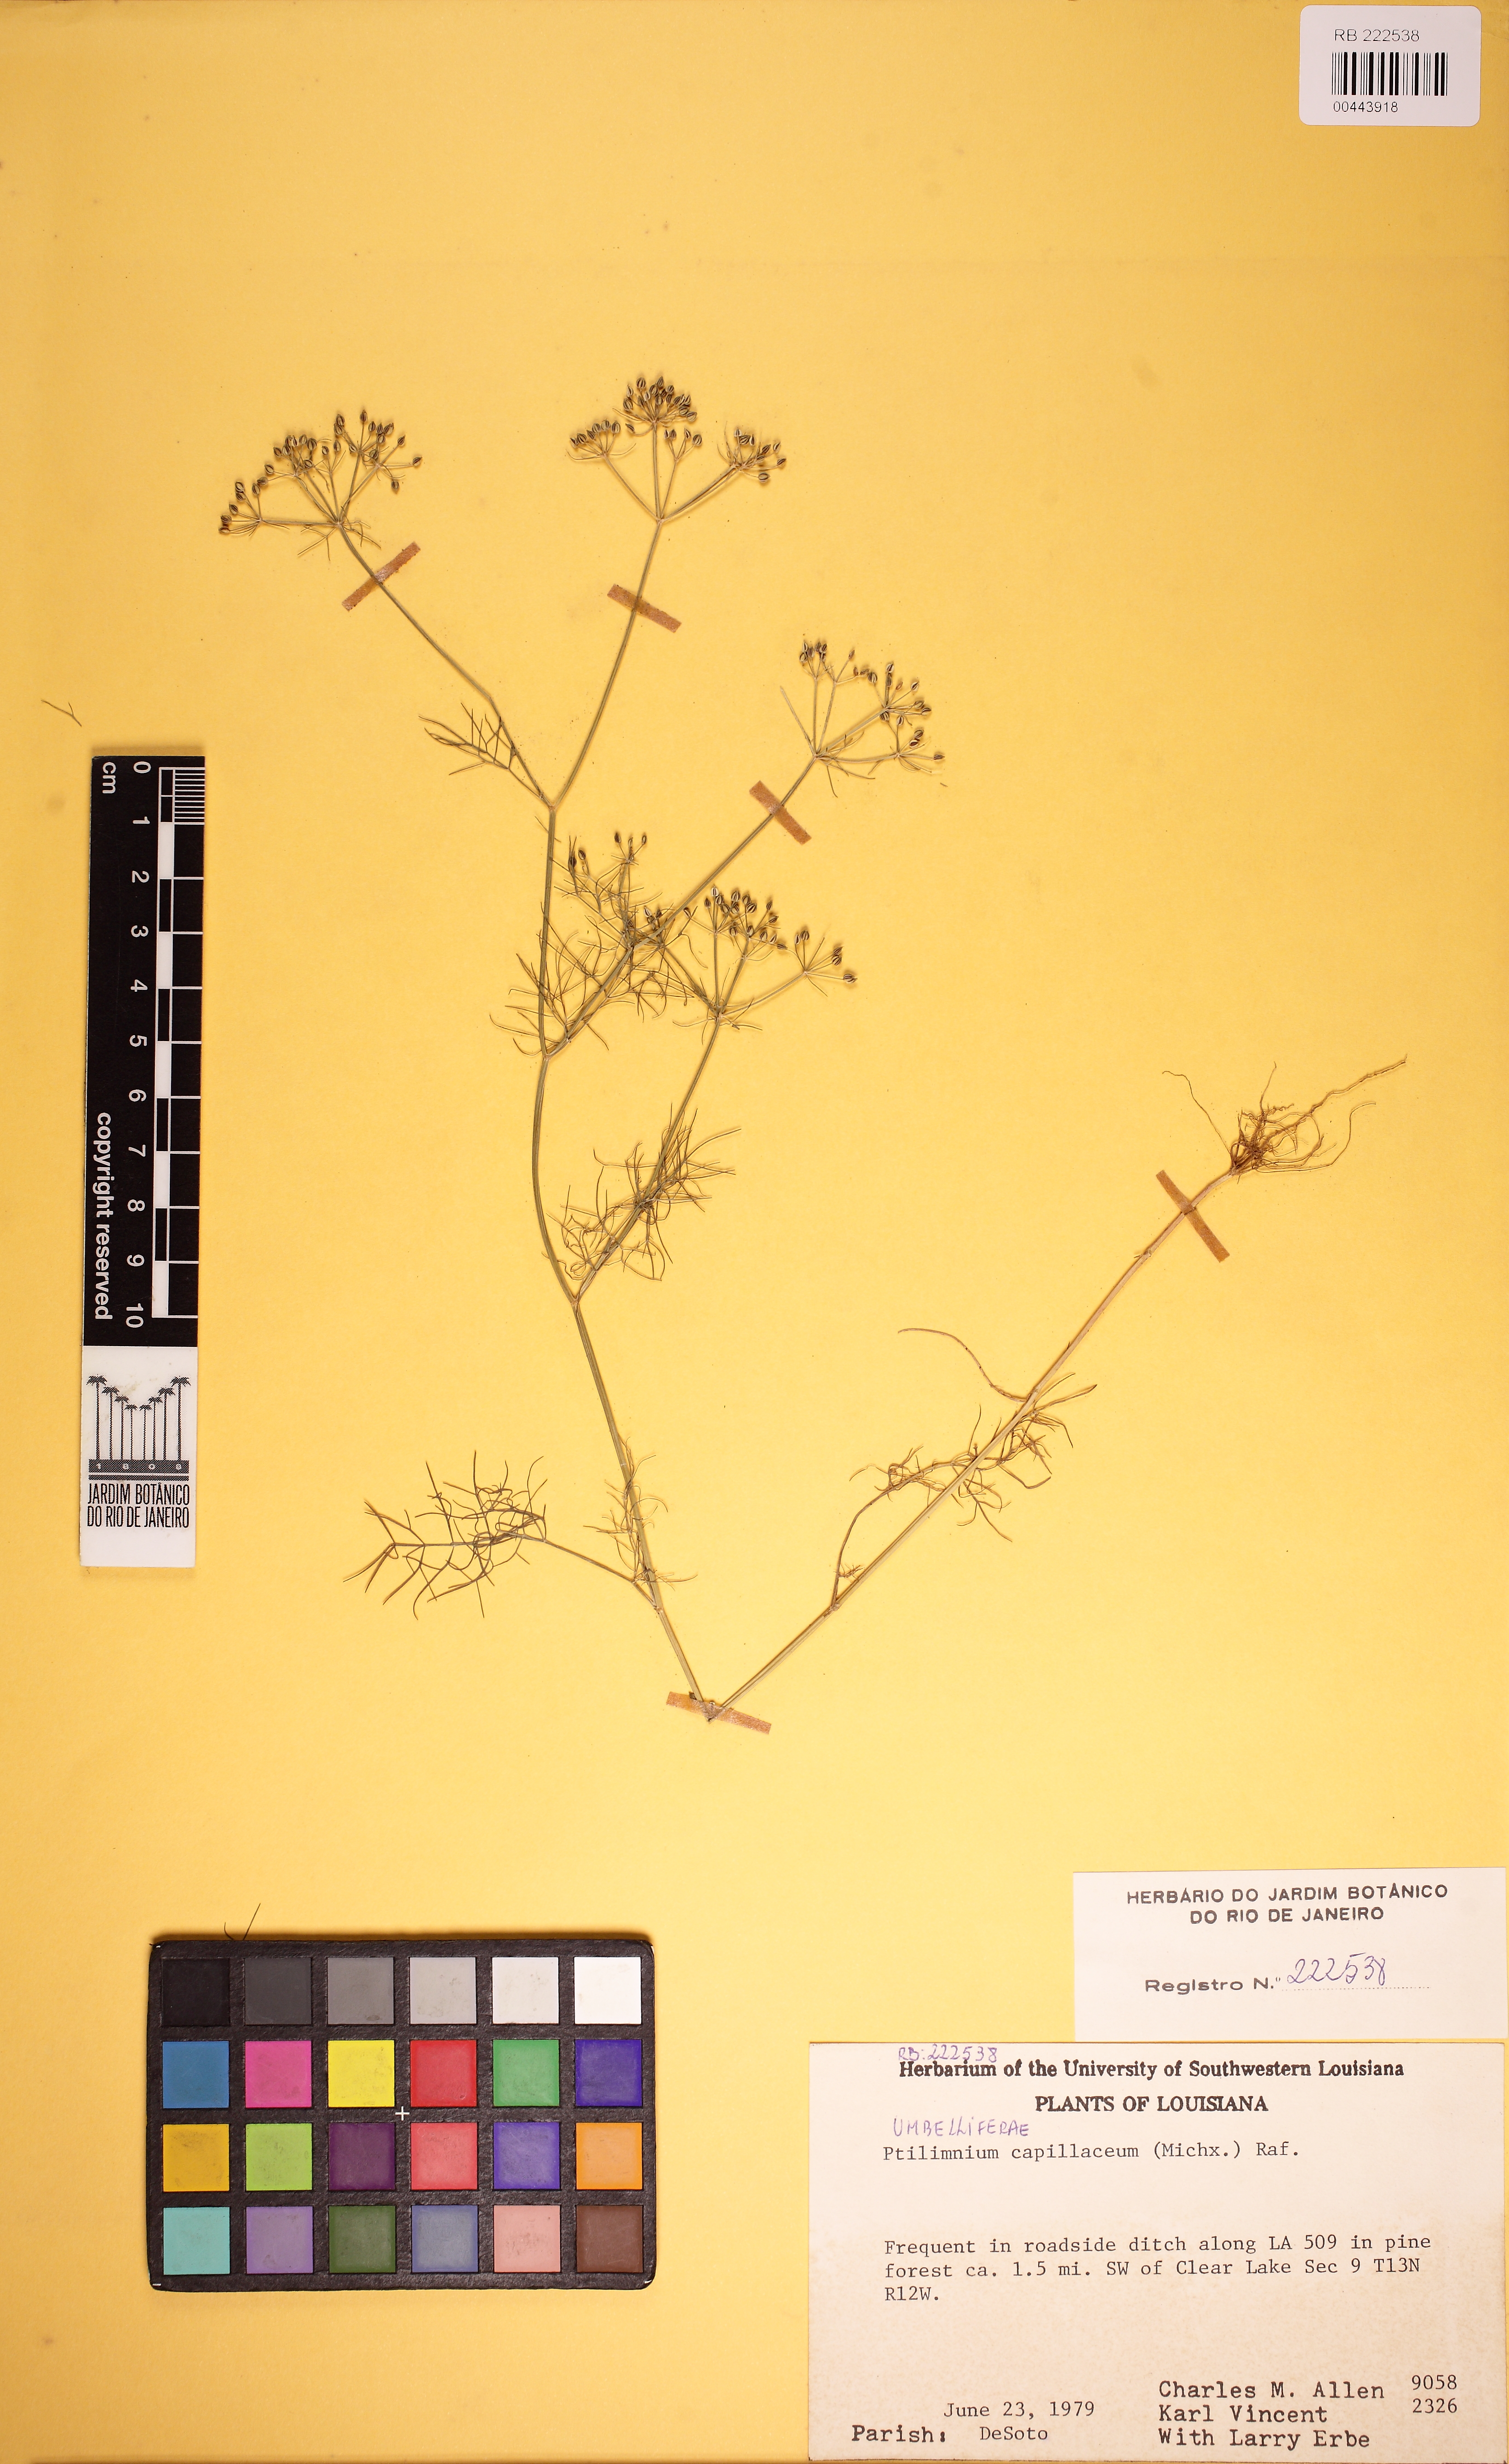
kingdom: Plantae
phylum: Tracheophyta
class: Magnoliopsida
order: Apiales
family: Apiaceae
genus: Ptilimnium
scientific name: Ptilimnium capillaceum
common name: Herbwilliam
